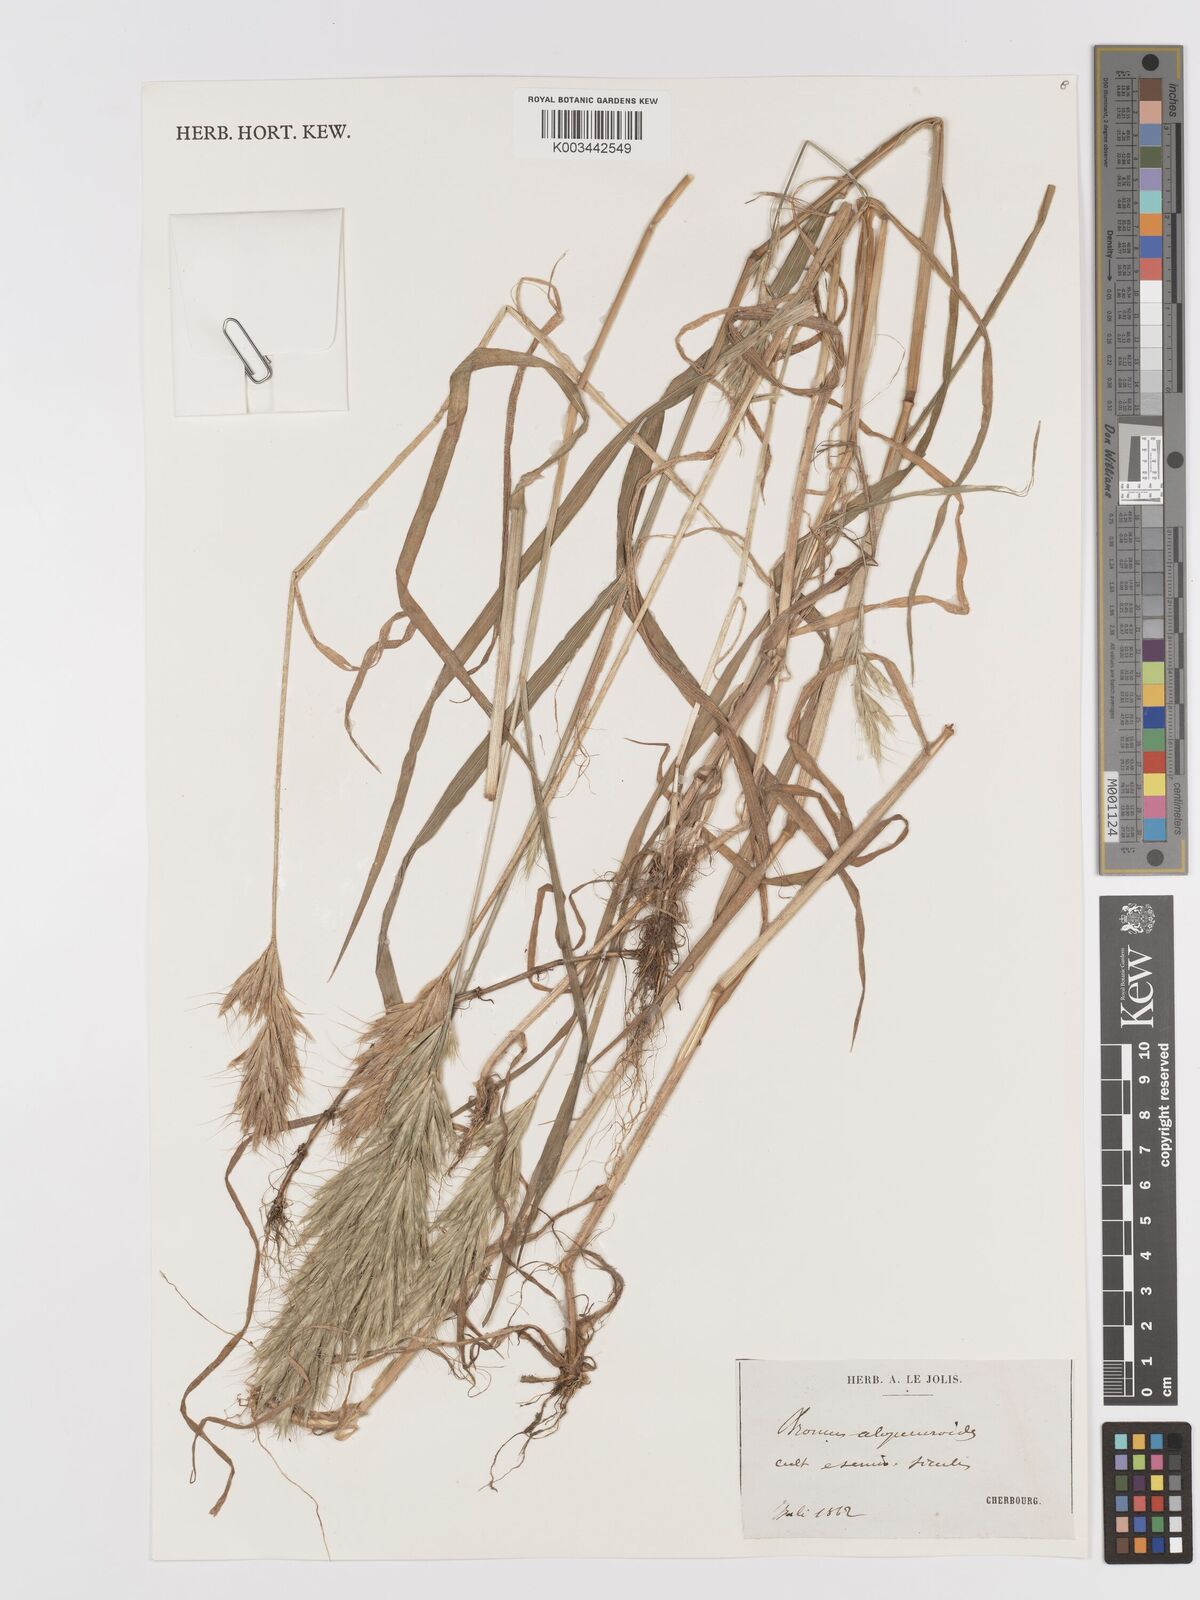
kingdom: Plantae
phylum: Tracheophyta
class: Liliopsida
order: Poales
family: Poaceae
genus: Bromus
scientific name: Bromus alopecuros
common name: Weedy brome
